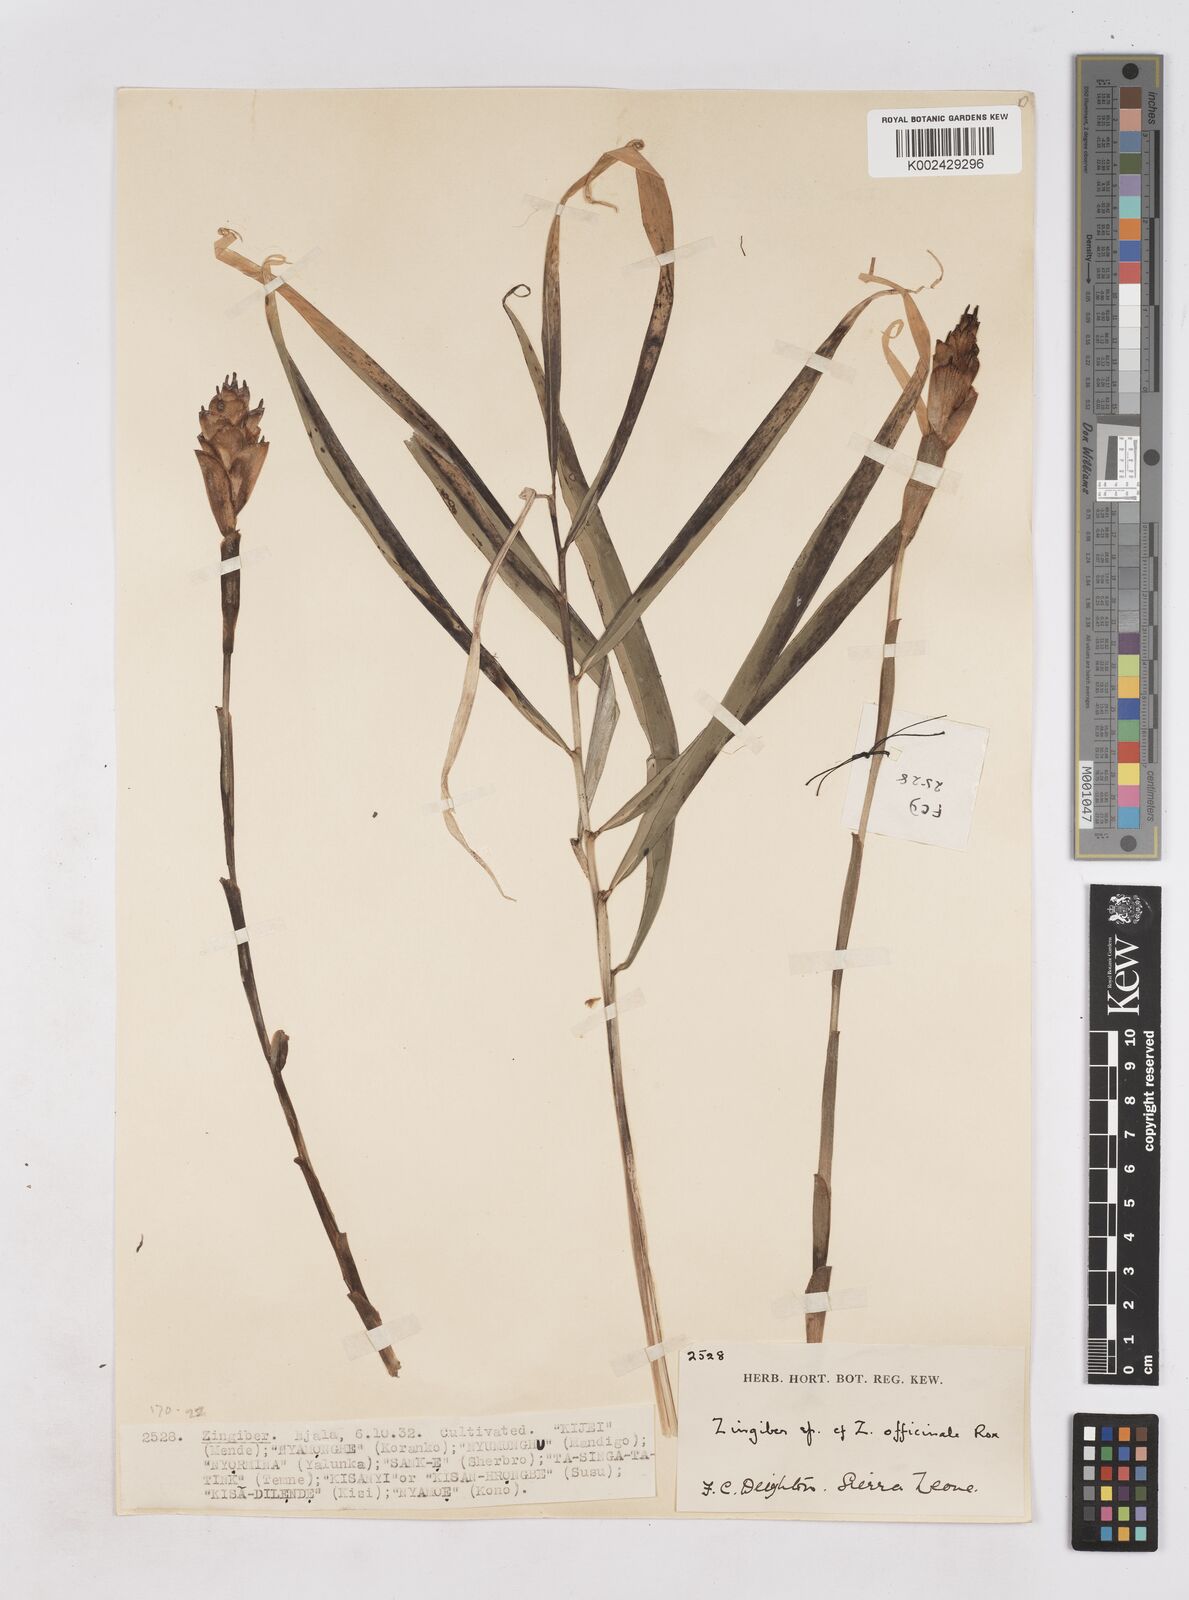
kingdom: Plantae
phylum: Tracheophyta
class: Liliopsida
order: Zingiberales
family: Zingiberaceae
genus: Zingiber
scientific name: Zingiber officinale
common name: Ginger
